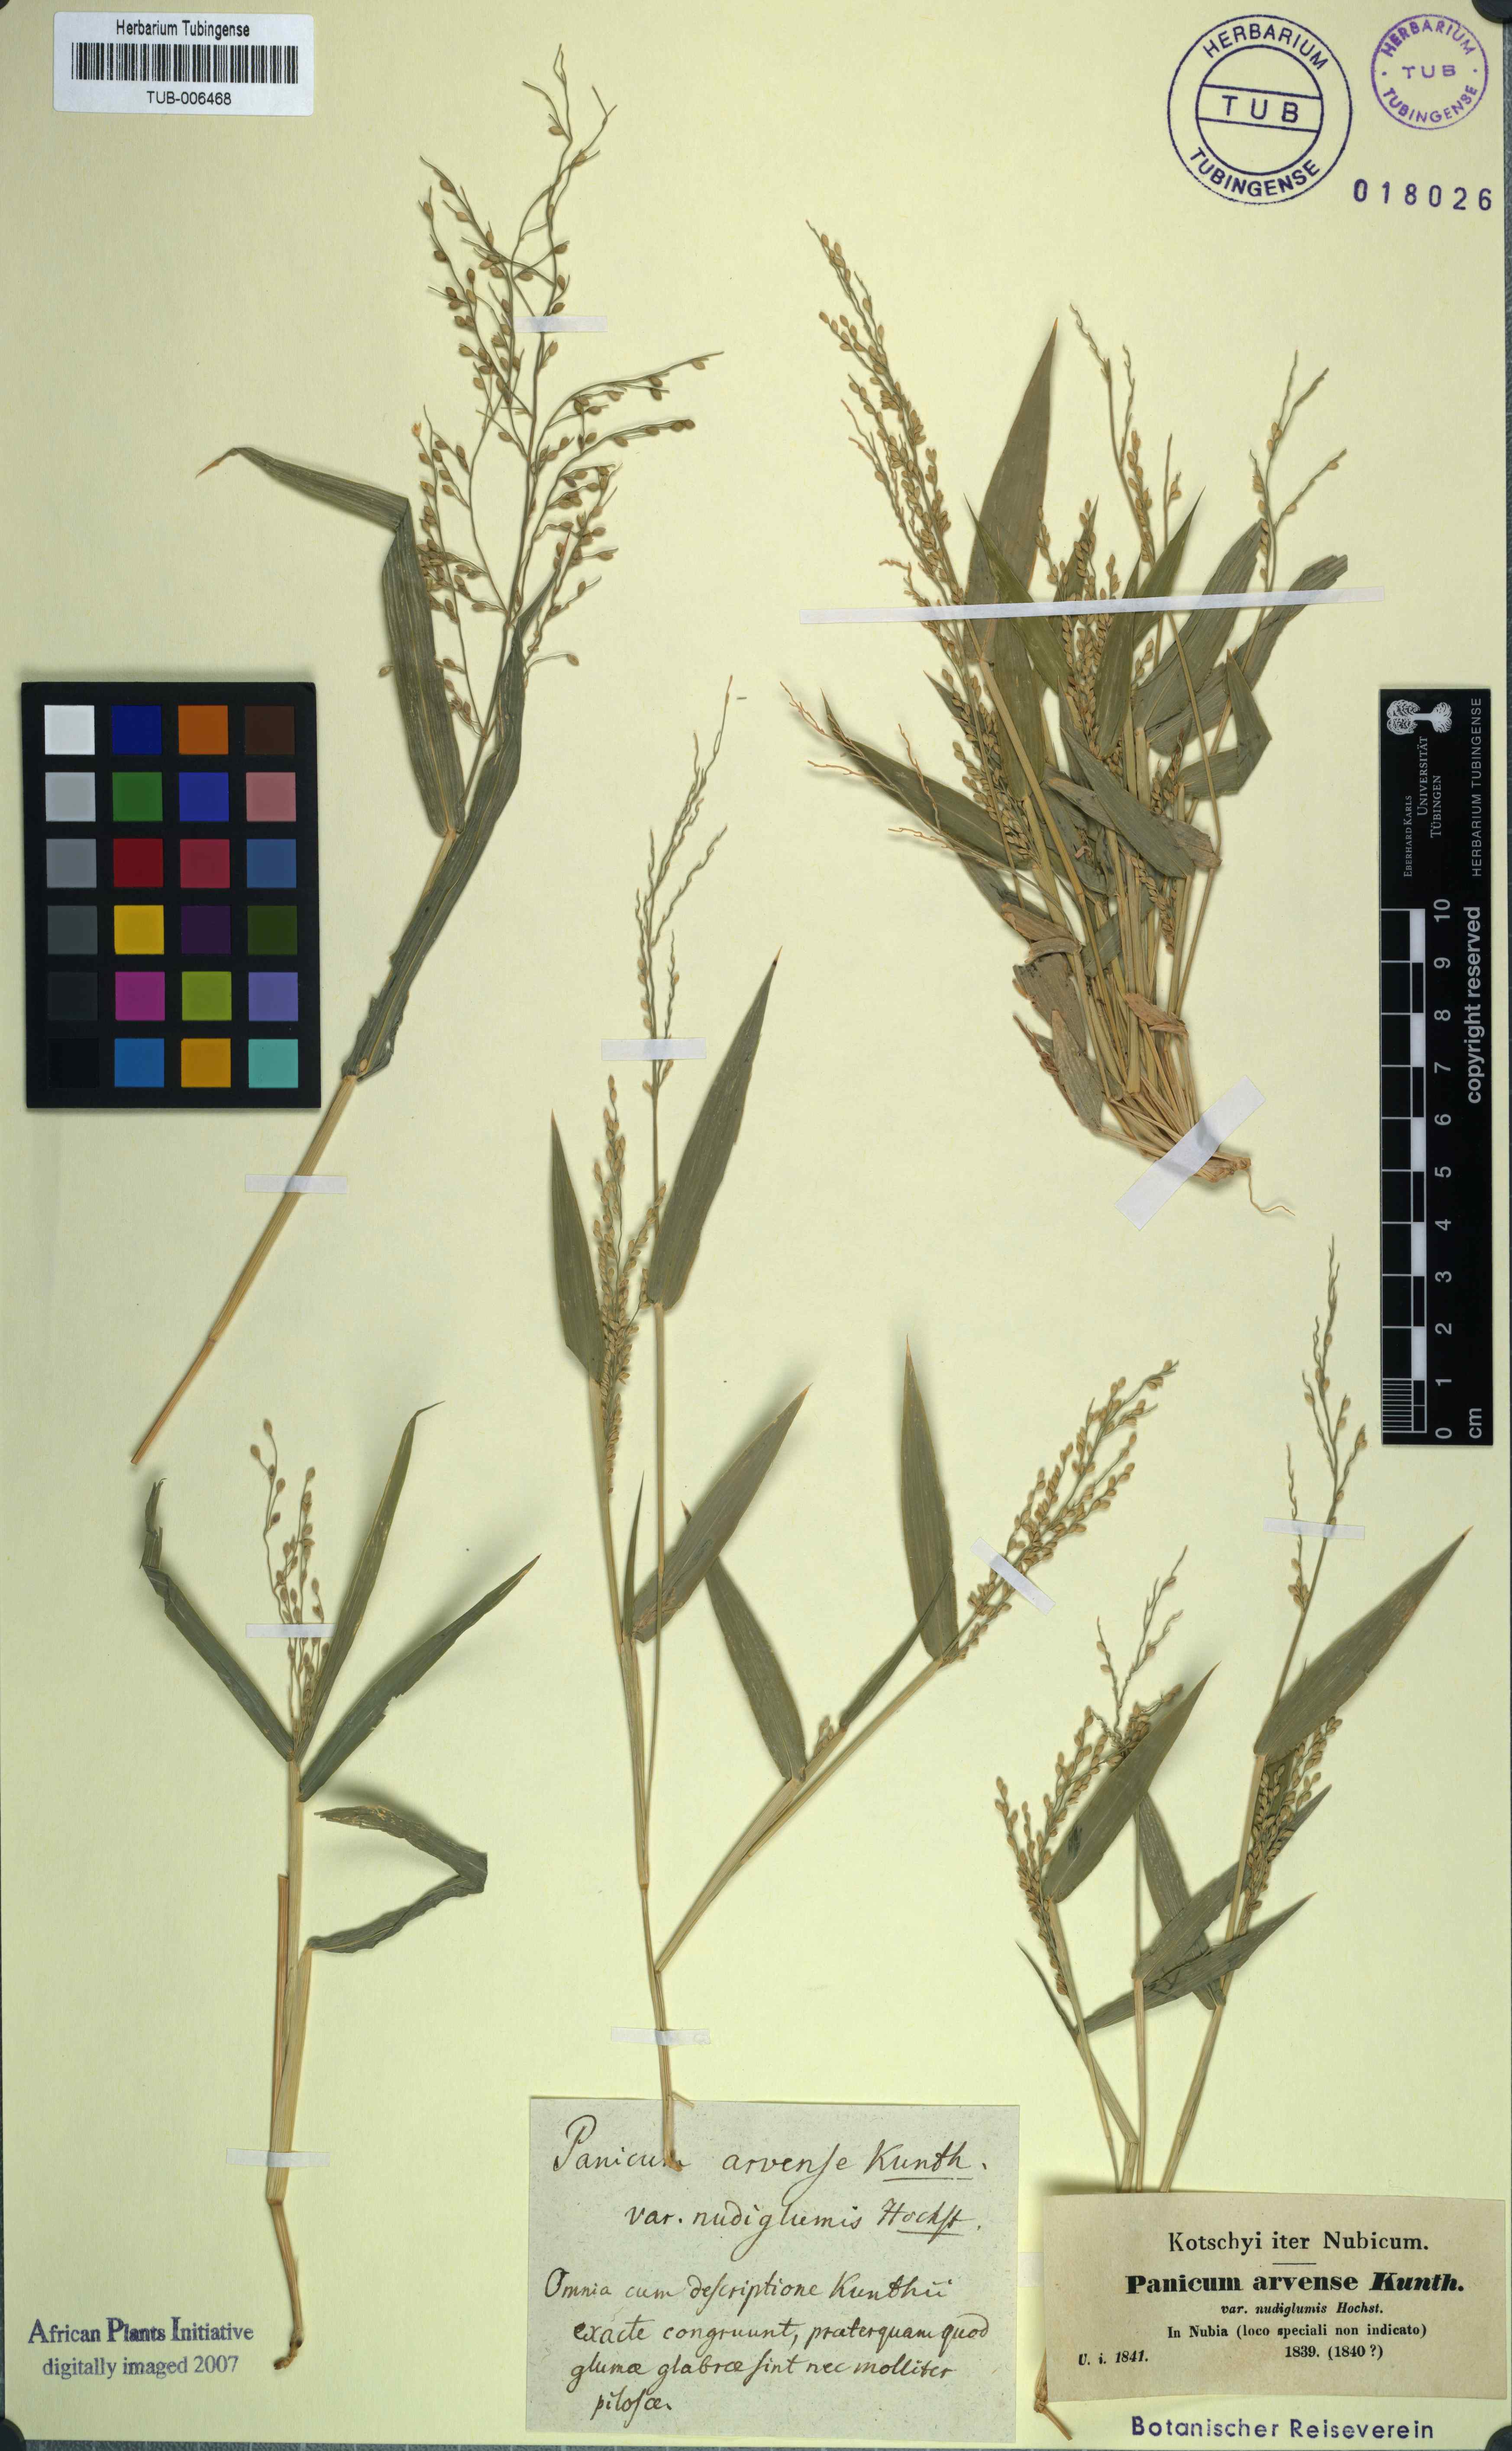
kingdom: Plantae
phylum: Tracheophyta
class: Liliopsida
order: Poales
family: Poaceae
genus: Urochloa
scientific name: Urochloa ramosa
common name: Browntop millet
